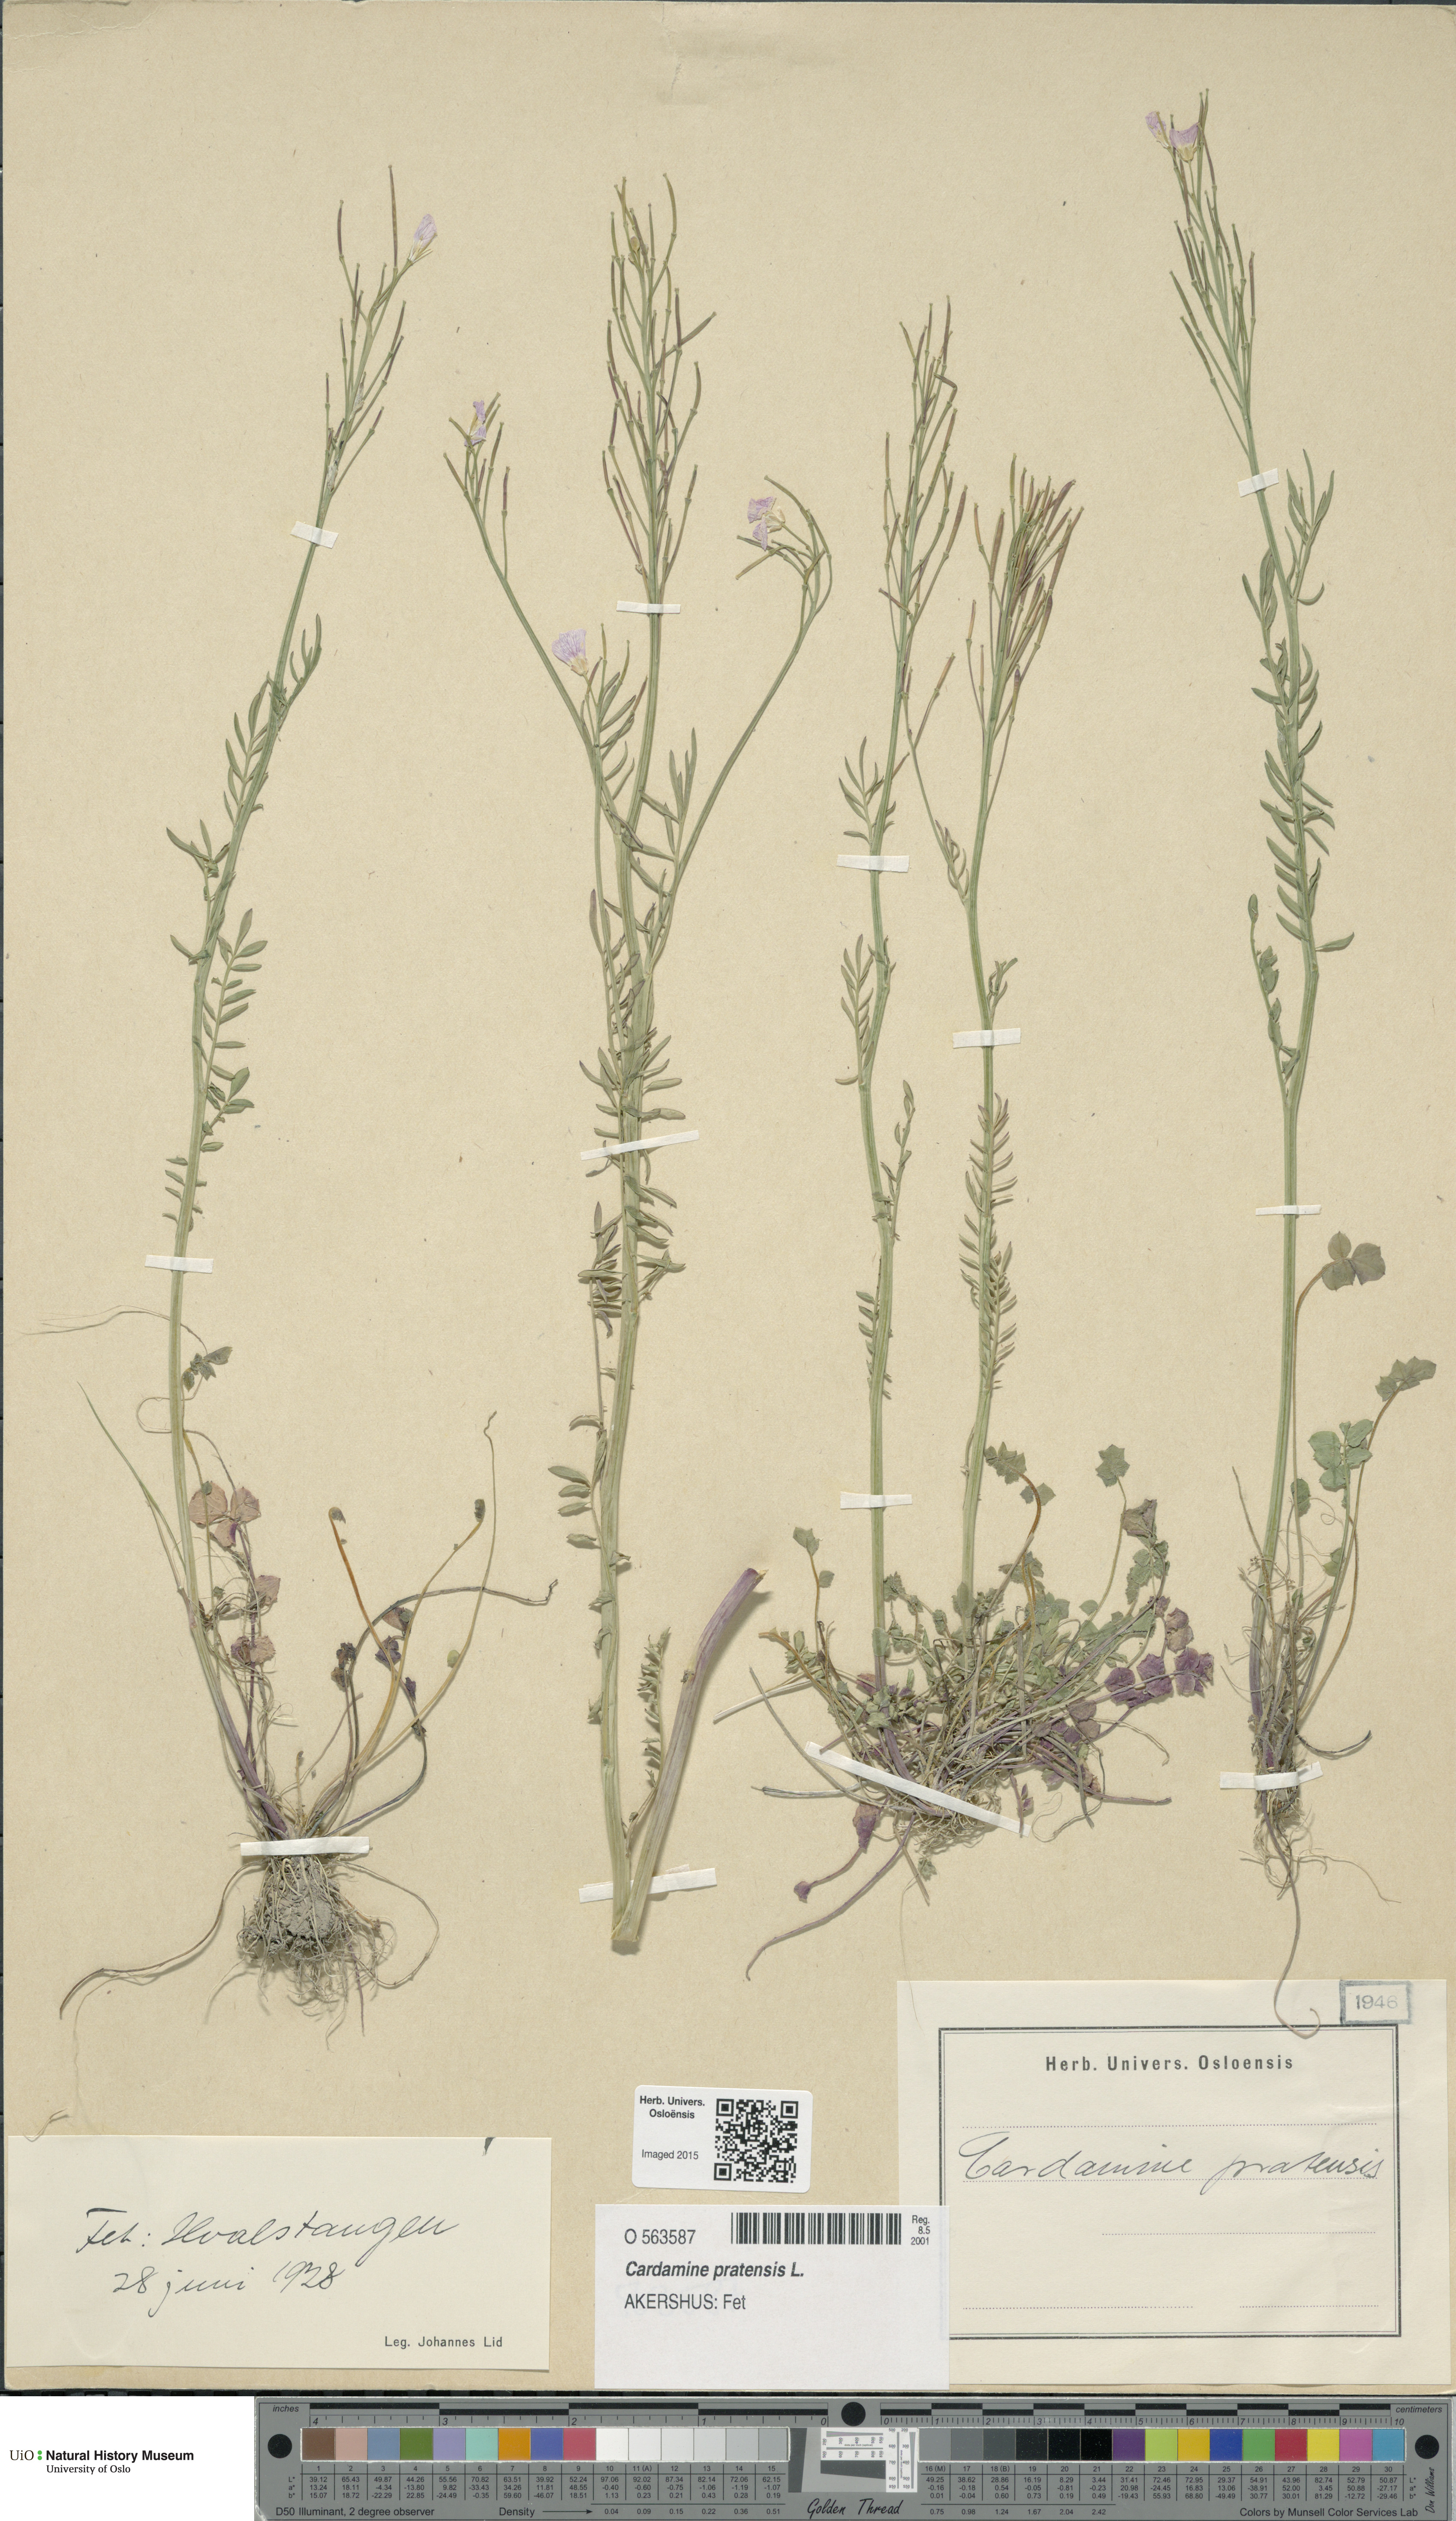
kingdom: Plantae
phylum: Tracheophyta
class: Magnoliopsida
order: Brassicales
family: Brassicaceae
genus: Cardamine
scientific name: Cardamine pratensis
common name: Cuckoo flower
